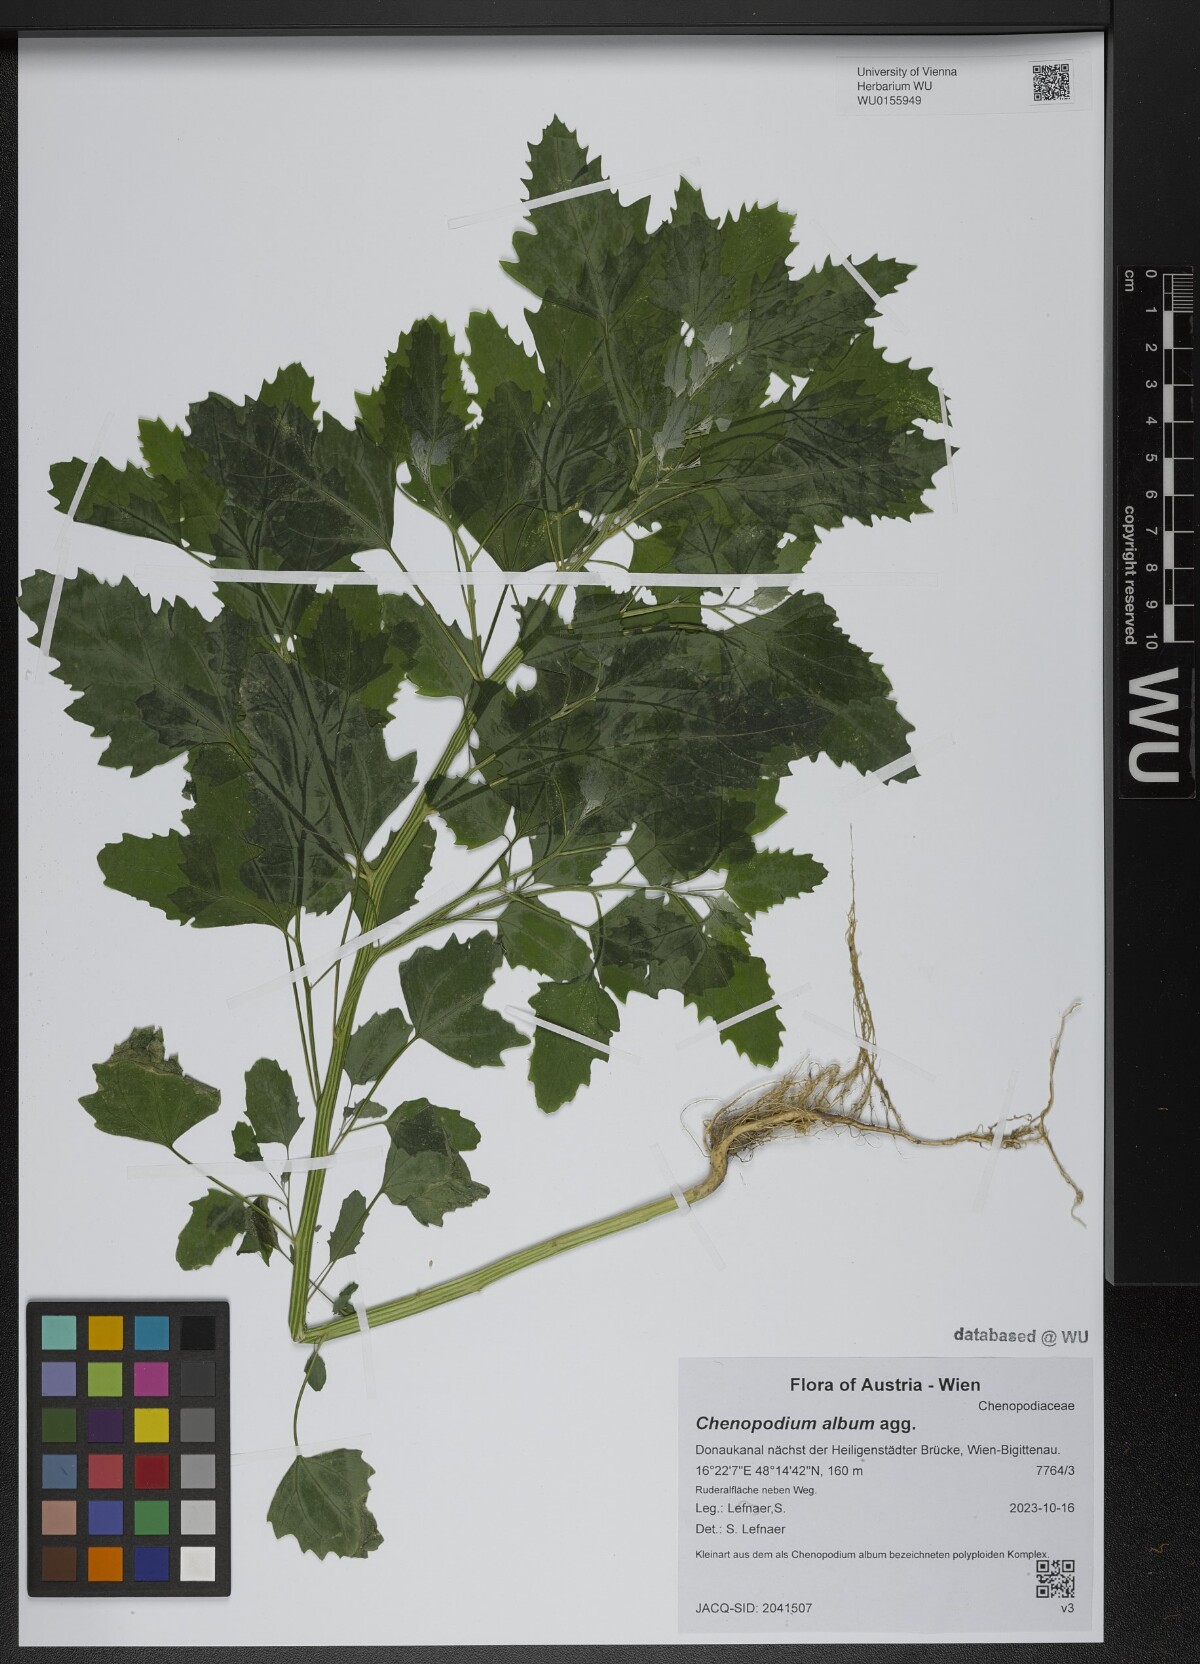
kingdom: Plantae
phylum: Tracheophyta
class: Magnoliopsida
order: Caryophyllales
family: Amaranthaceae
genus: Chenopodium
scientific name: Chenopodium album
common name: Fat-hen
